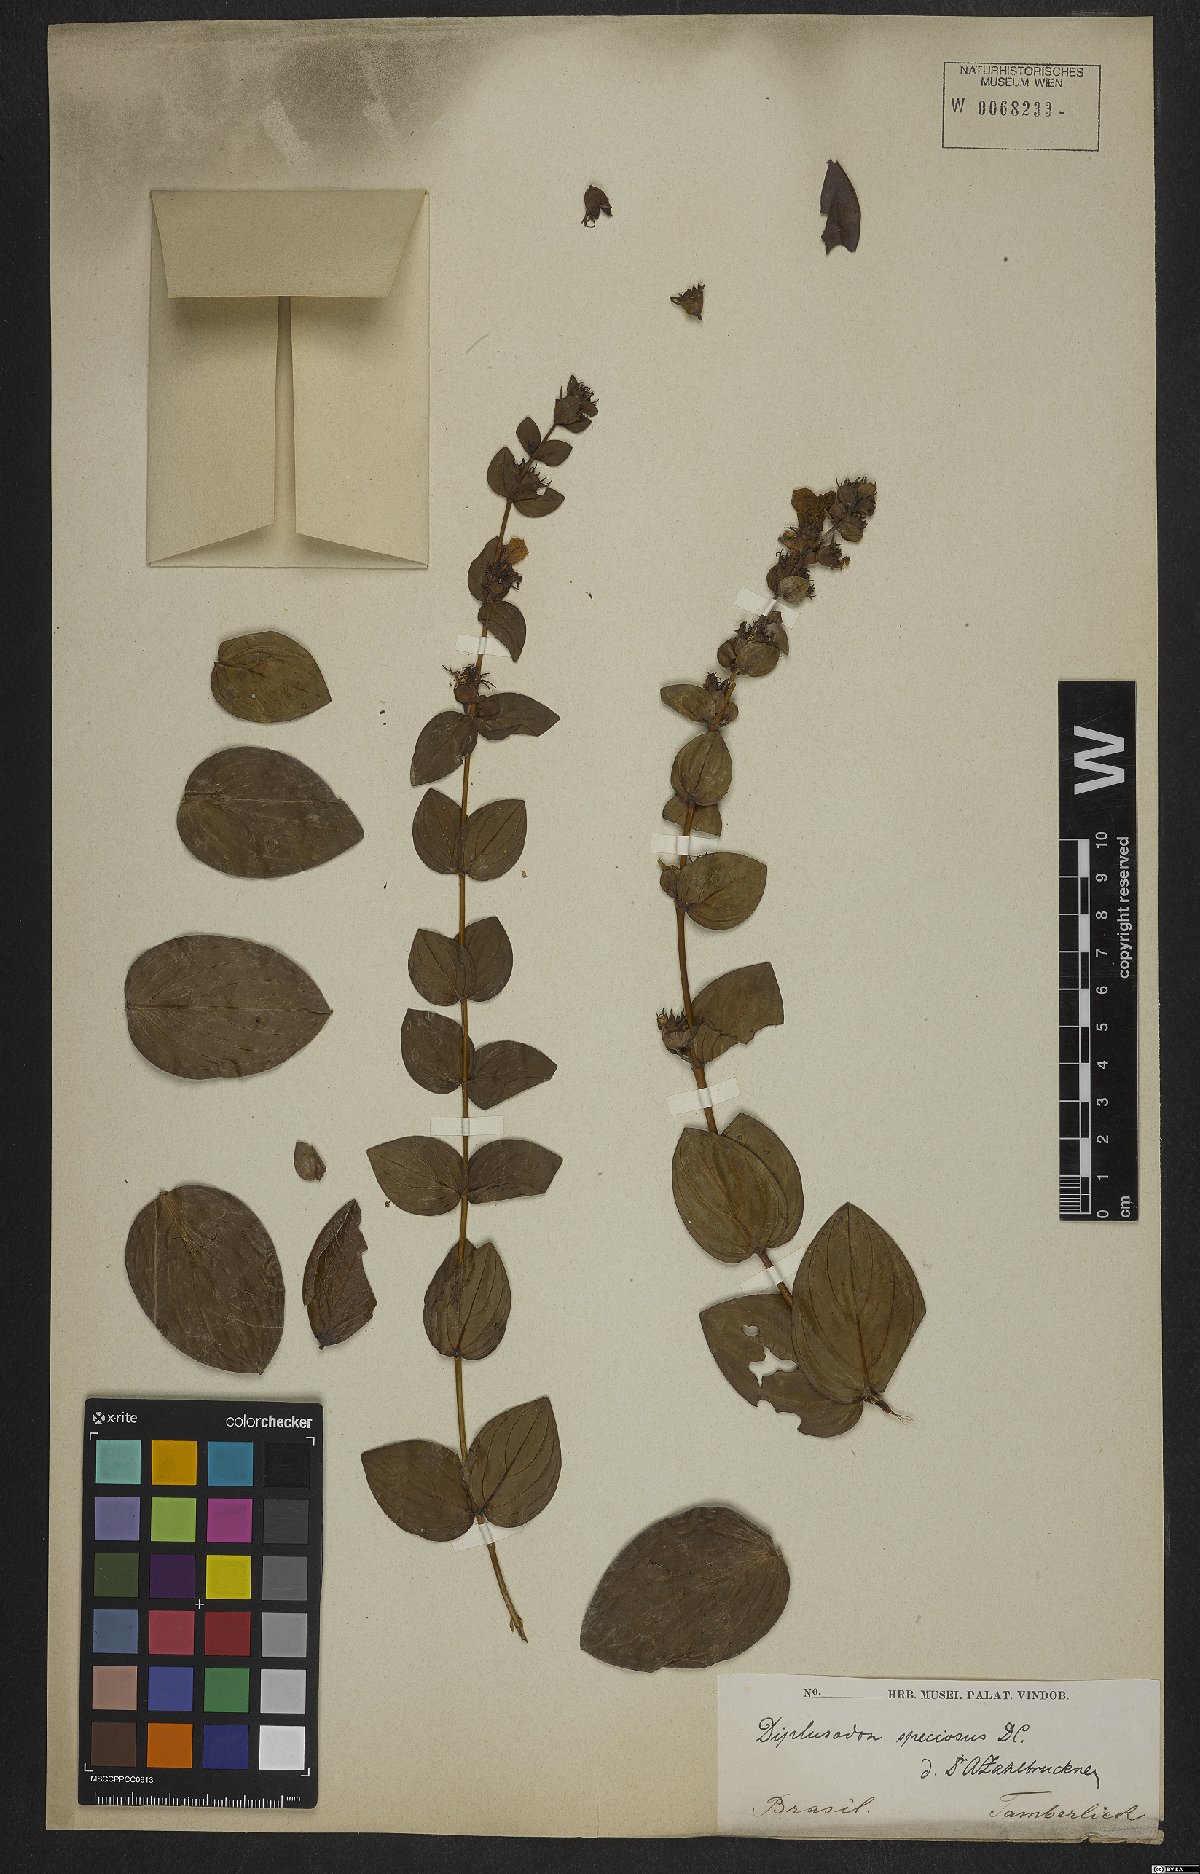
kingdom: Plantae
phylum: Tracheophyta
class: Magnoliopsida
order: Myrtales
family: Lythraceae
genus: Cuphea
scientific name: Cuphea llavea
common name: Tiny-mice
